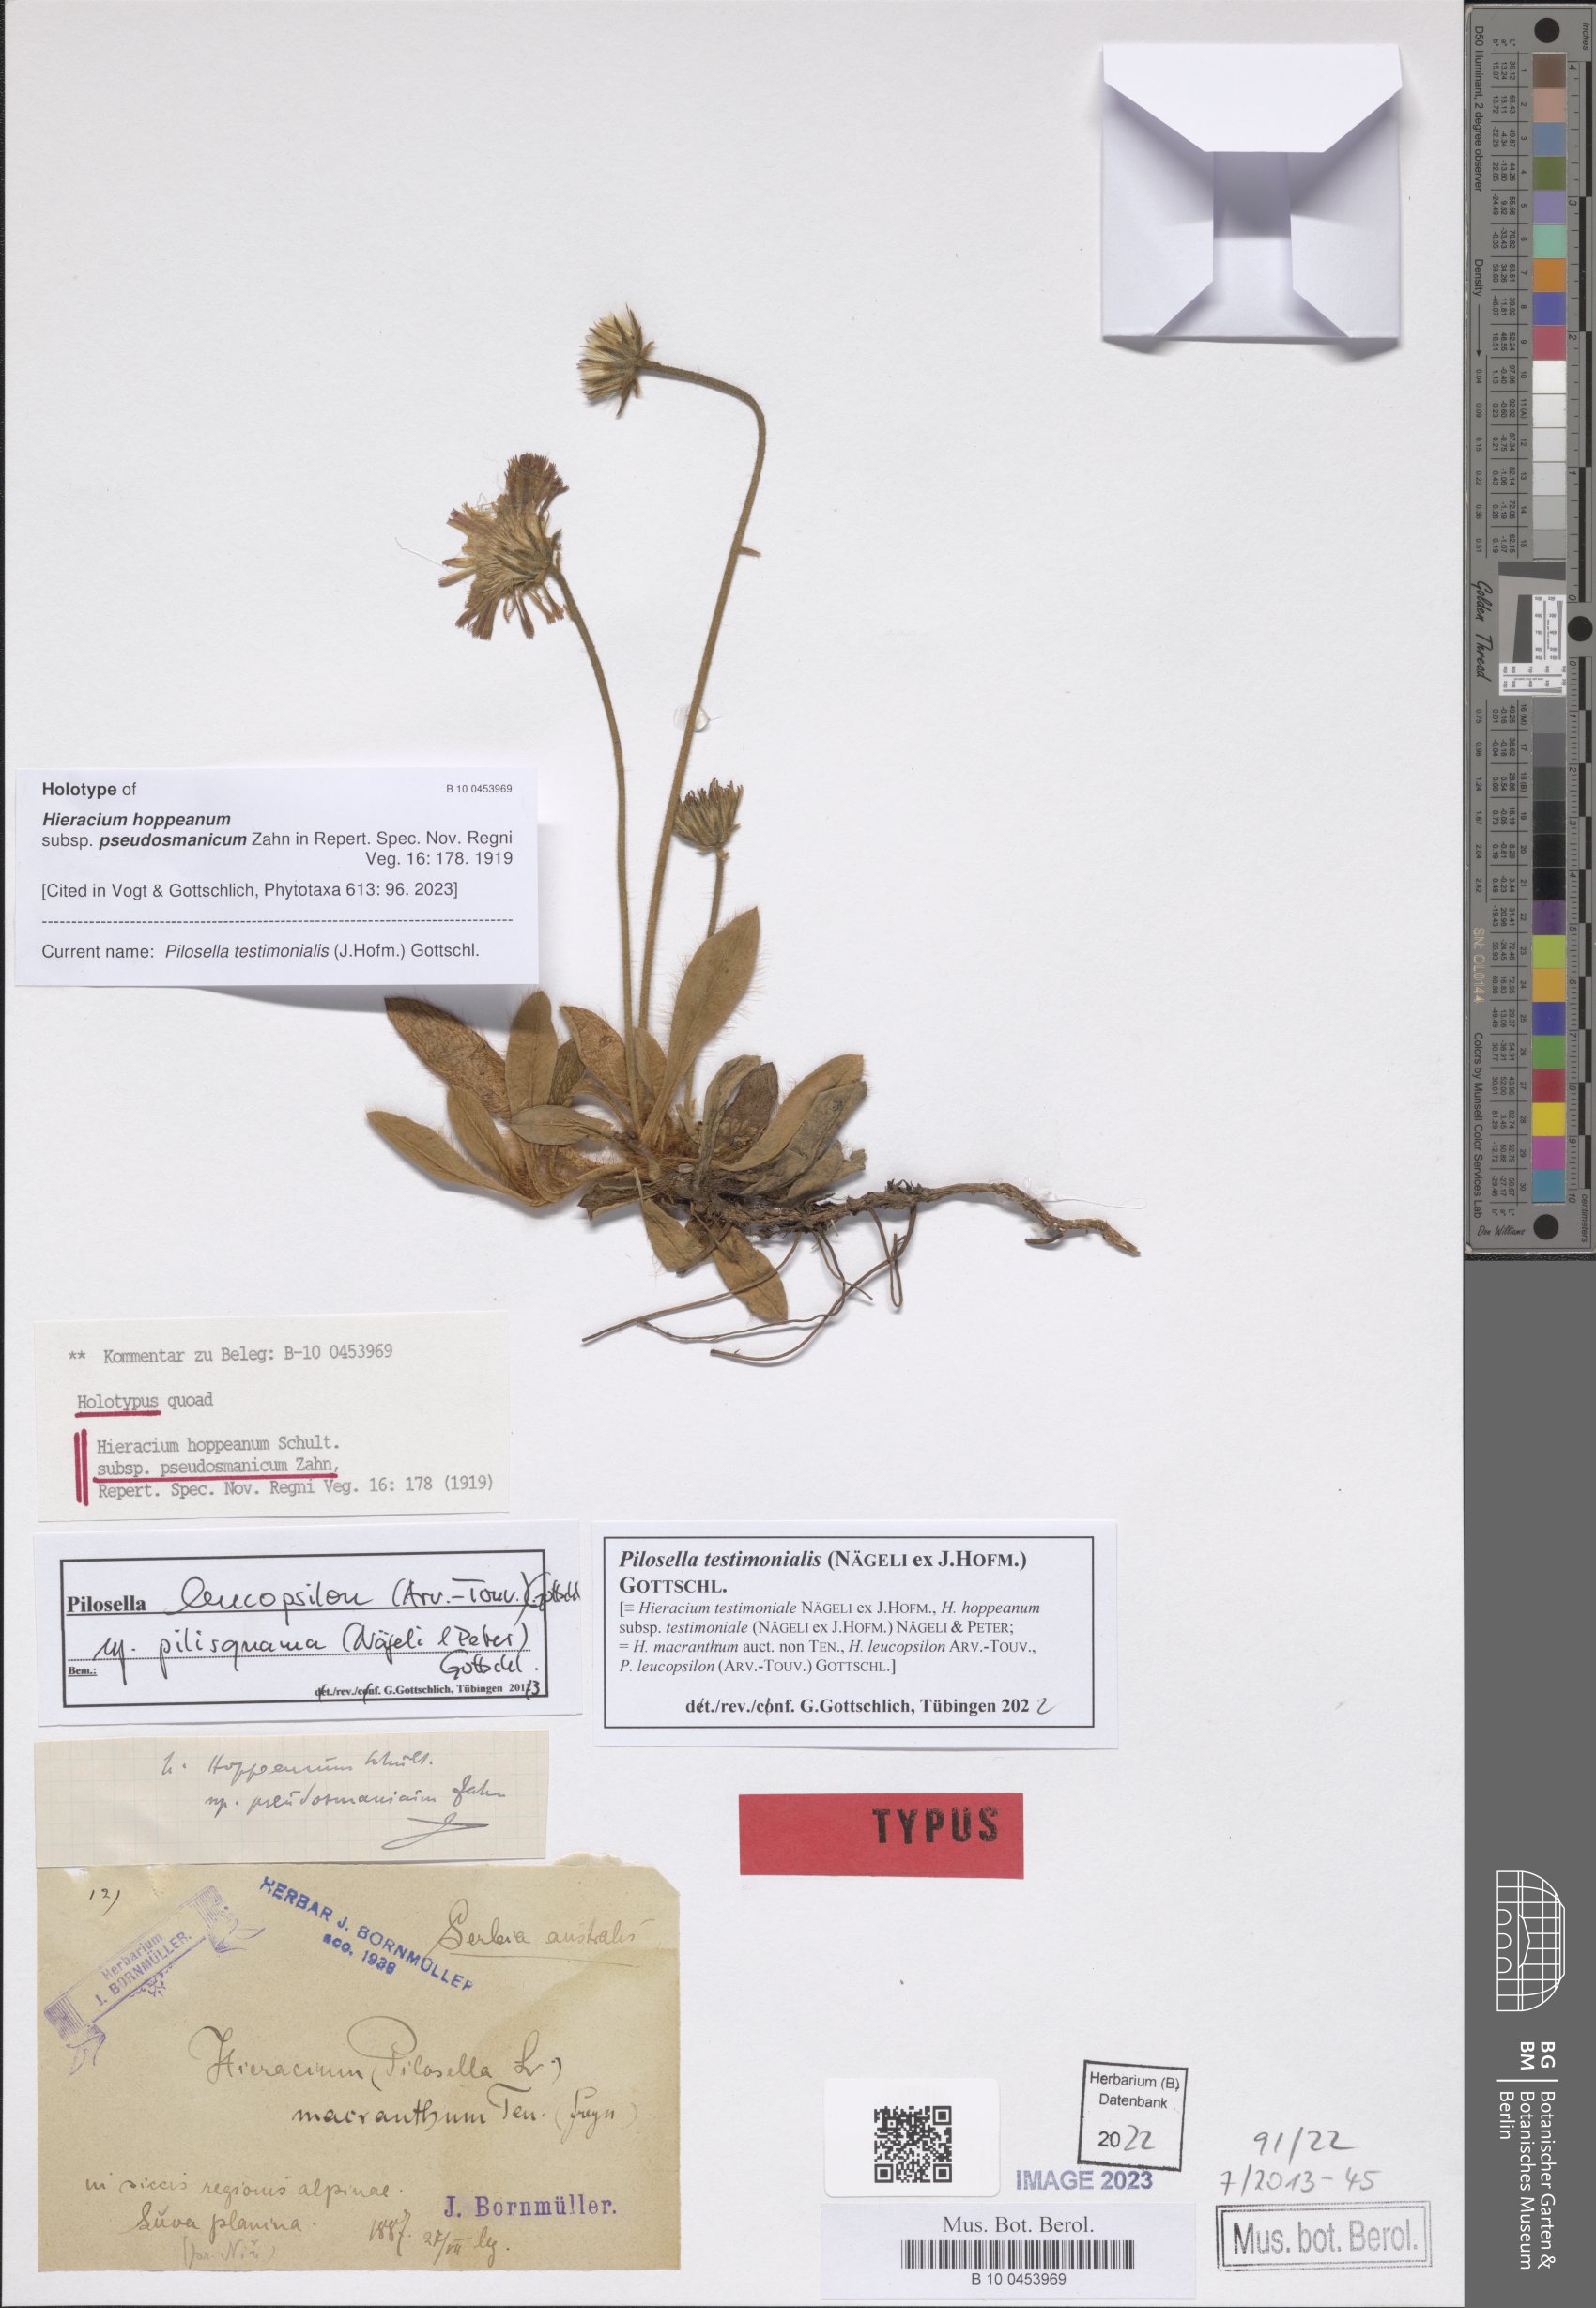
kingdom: Plantae
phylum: Tracheophyta
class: Magnoliopsida
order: Asterales
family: Asteraceae
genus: Pilosella
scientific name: Pilosella leucopsilon
